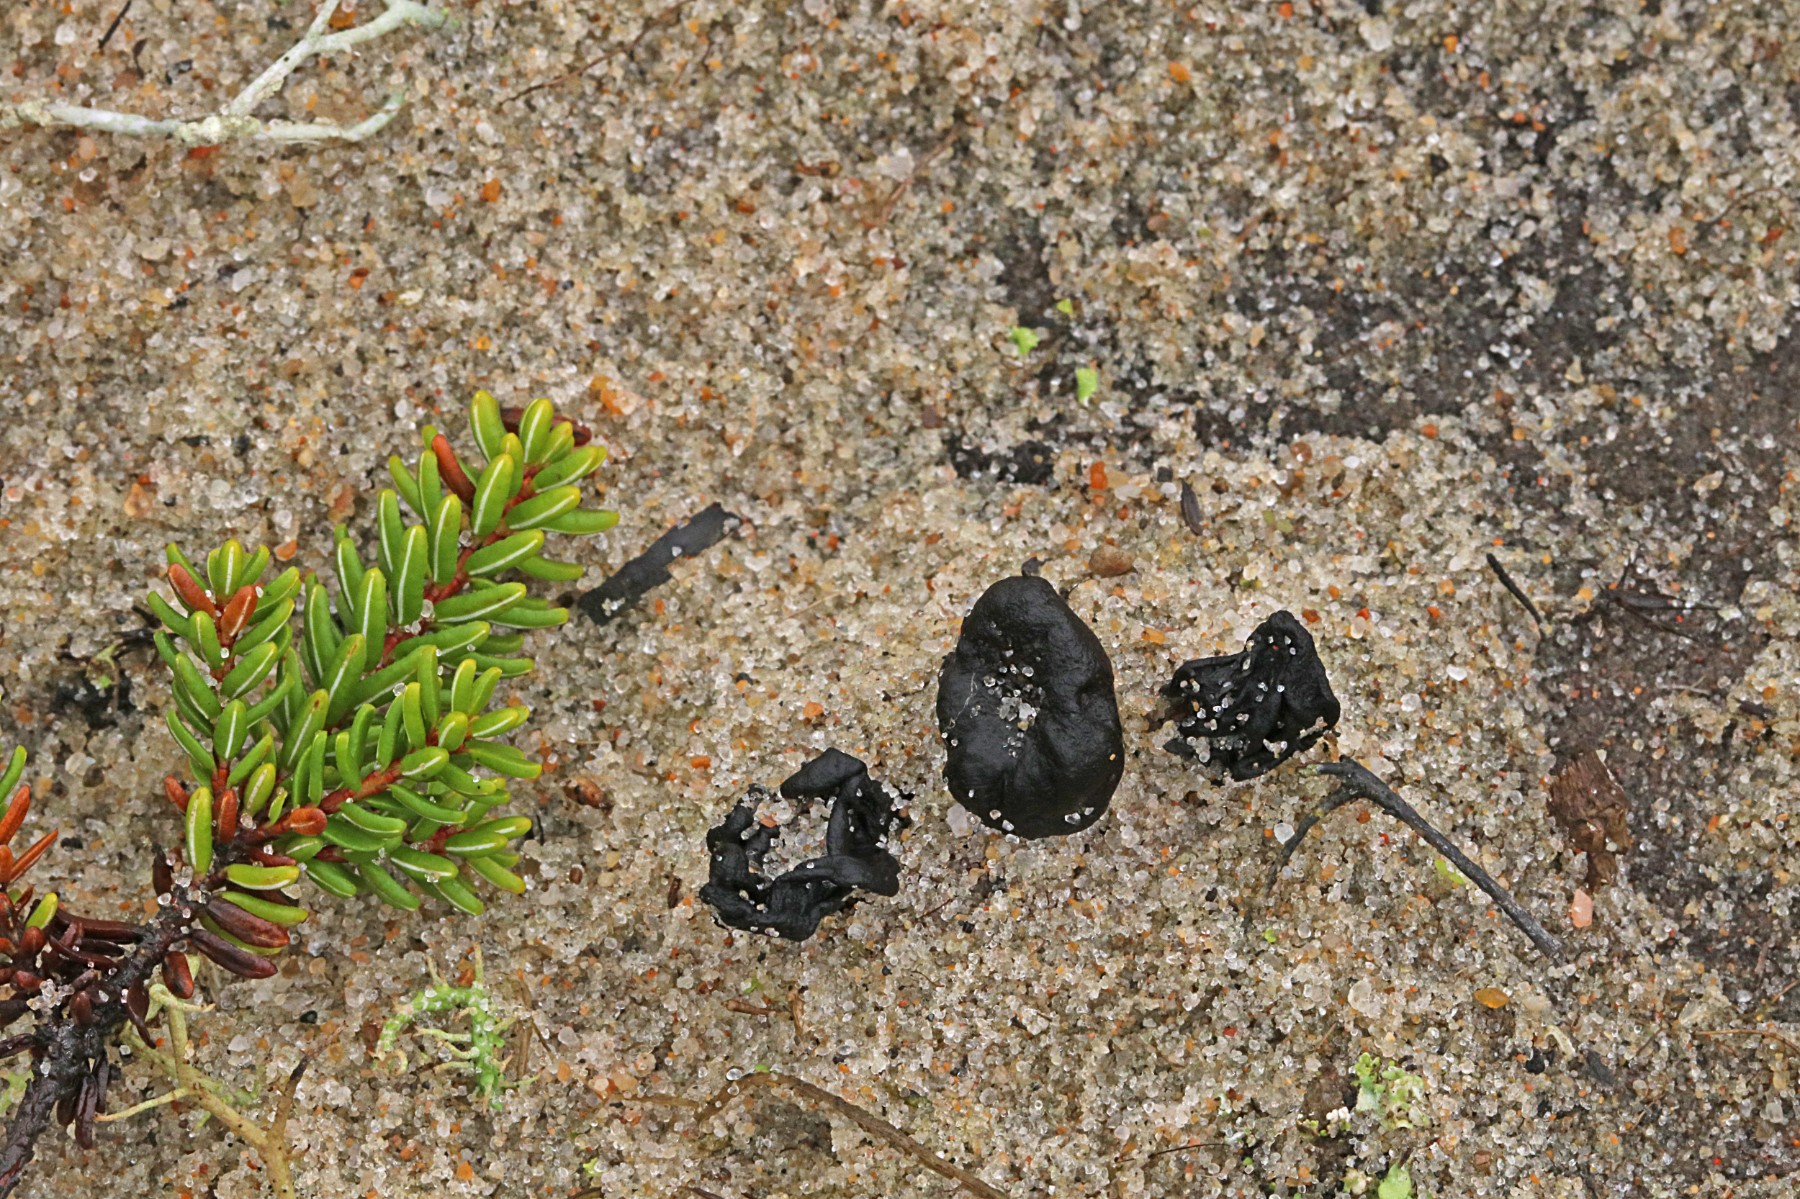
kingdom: Fungi
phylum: Ascomycota
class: Geoglossomycetes
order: Geoglossales
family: Geoglossaceae
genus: Sabuloglossum
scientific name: Sabuloglossum arenarium
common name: klit-jordtunge
